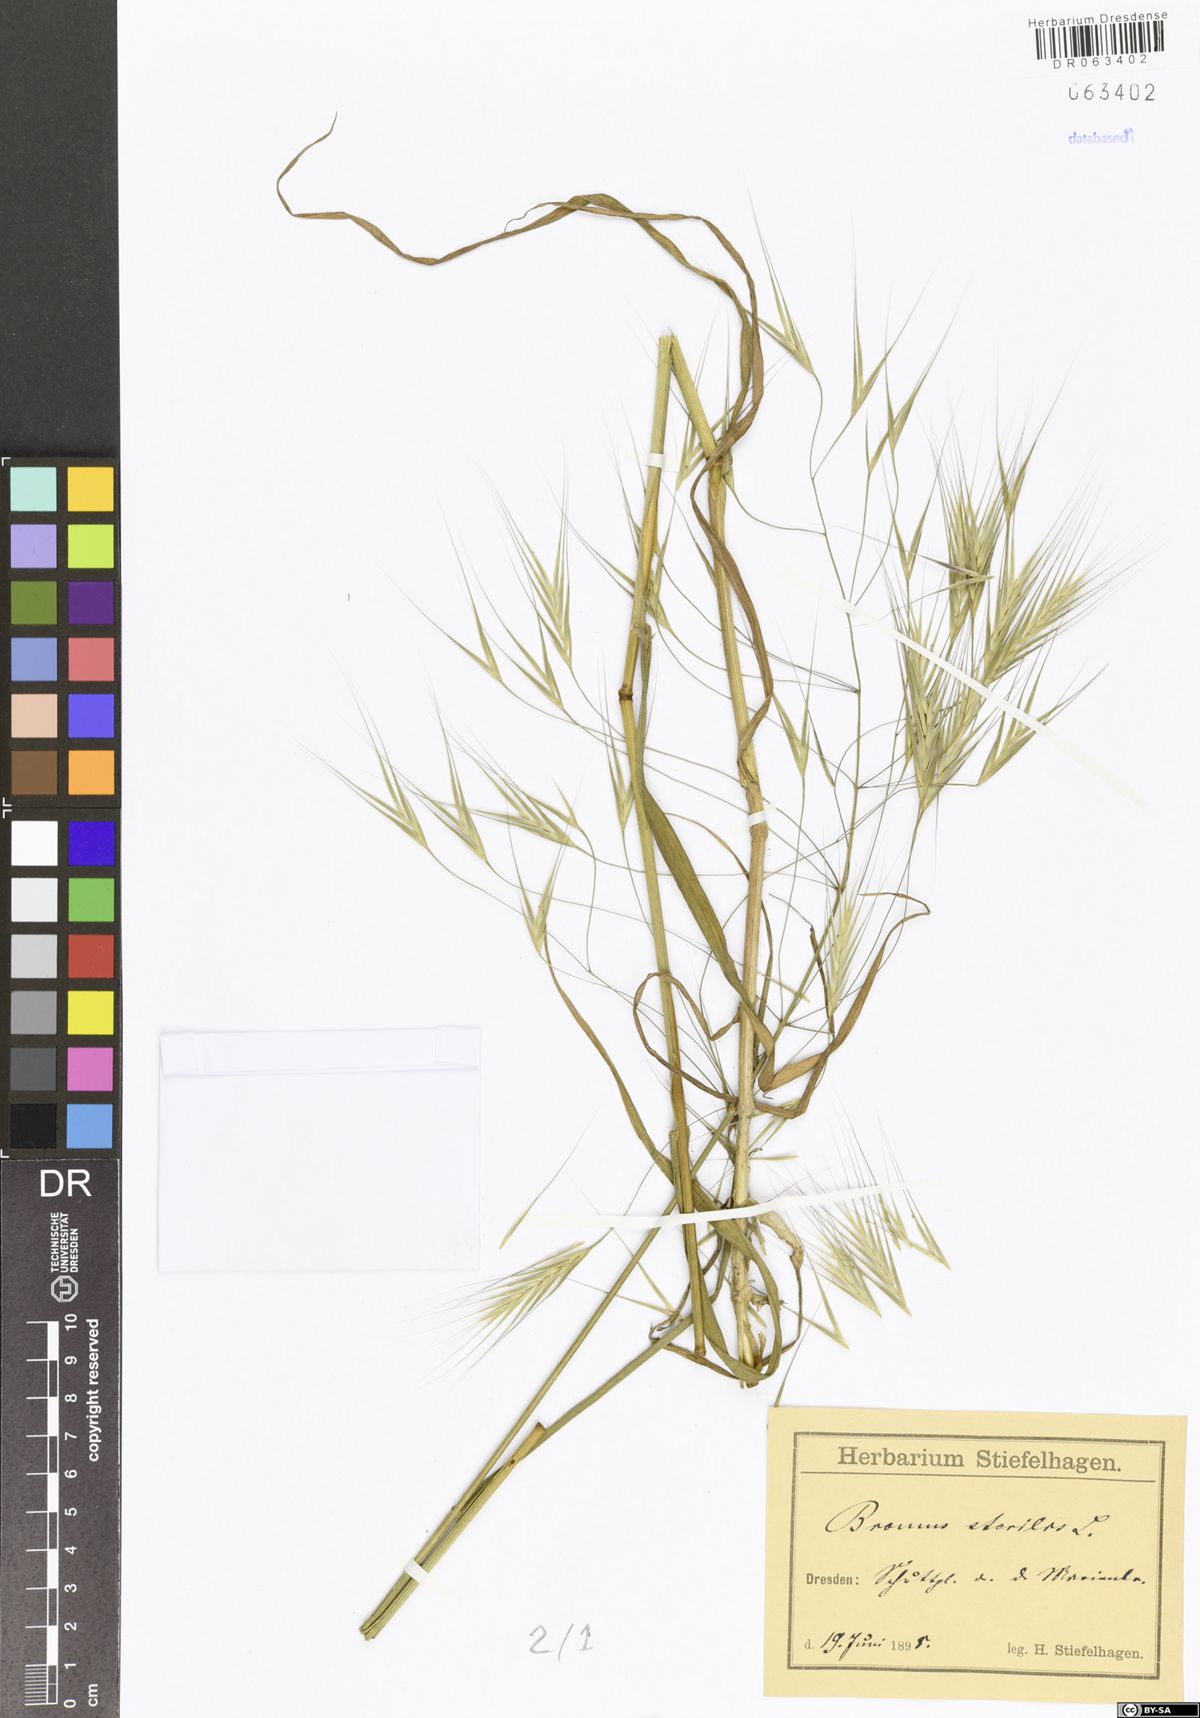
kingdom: Plantae
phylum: Tracheophyta
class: Liliopsida
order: Poales
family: Poaceae
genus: Bromus
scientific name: Bromus sterilis
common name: Poverty brome
